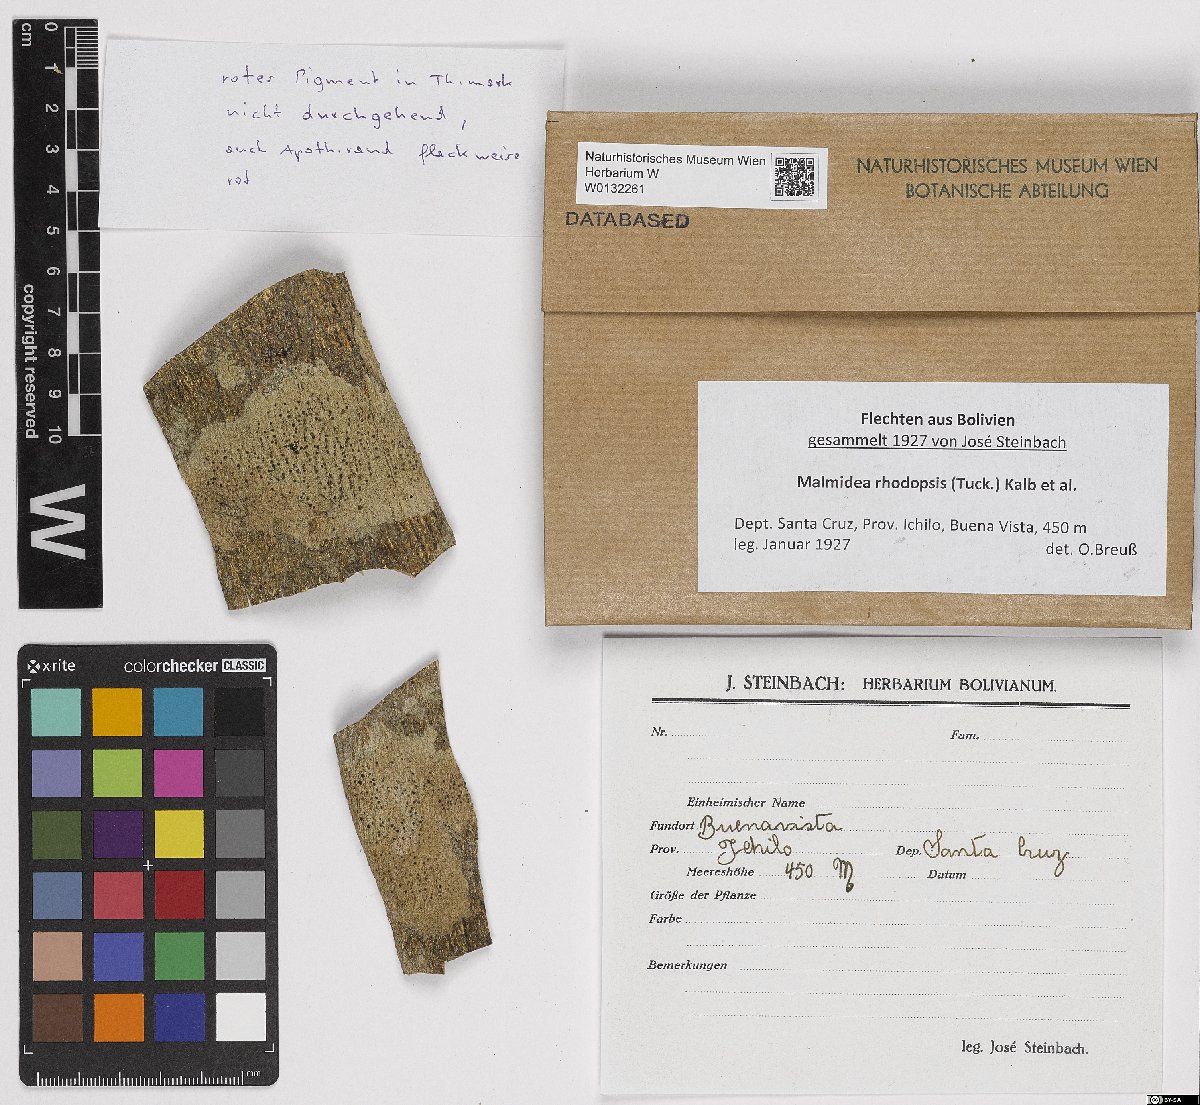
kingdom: Fungi
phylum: Ascomycota
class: Lecanoromycetes
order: Lecanorales
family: Malmideaceae
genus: Malmidea
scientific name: Malmidea rhodopsis
